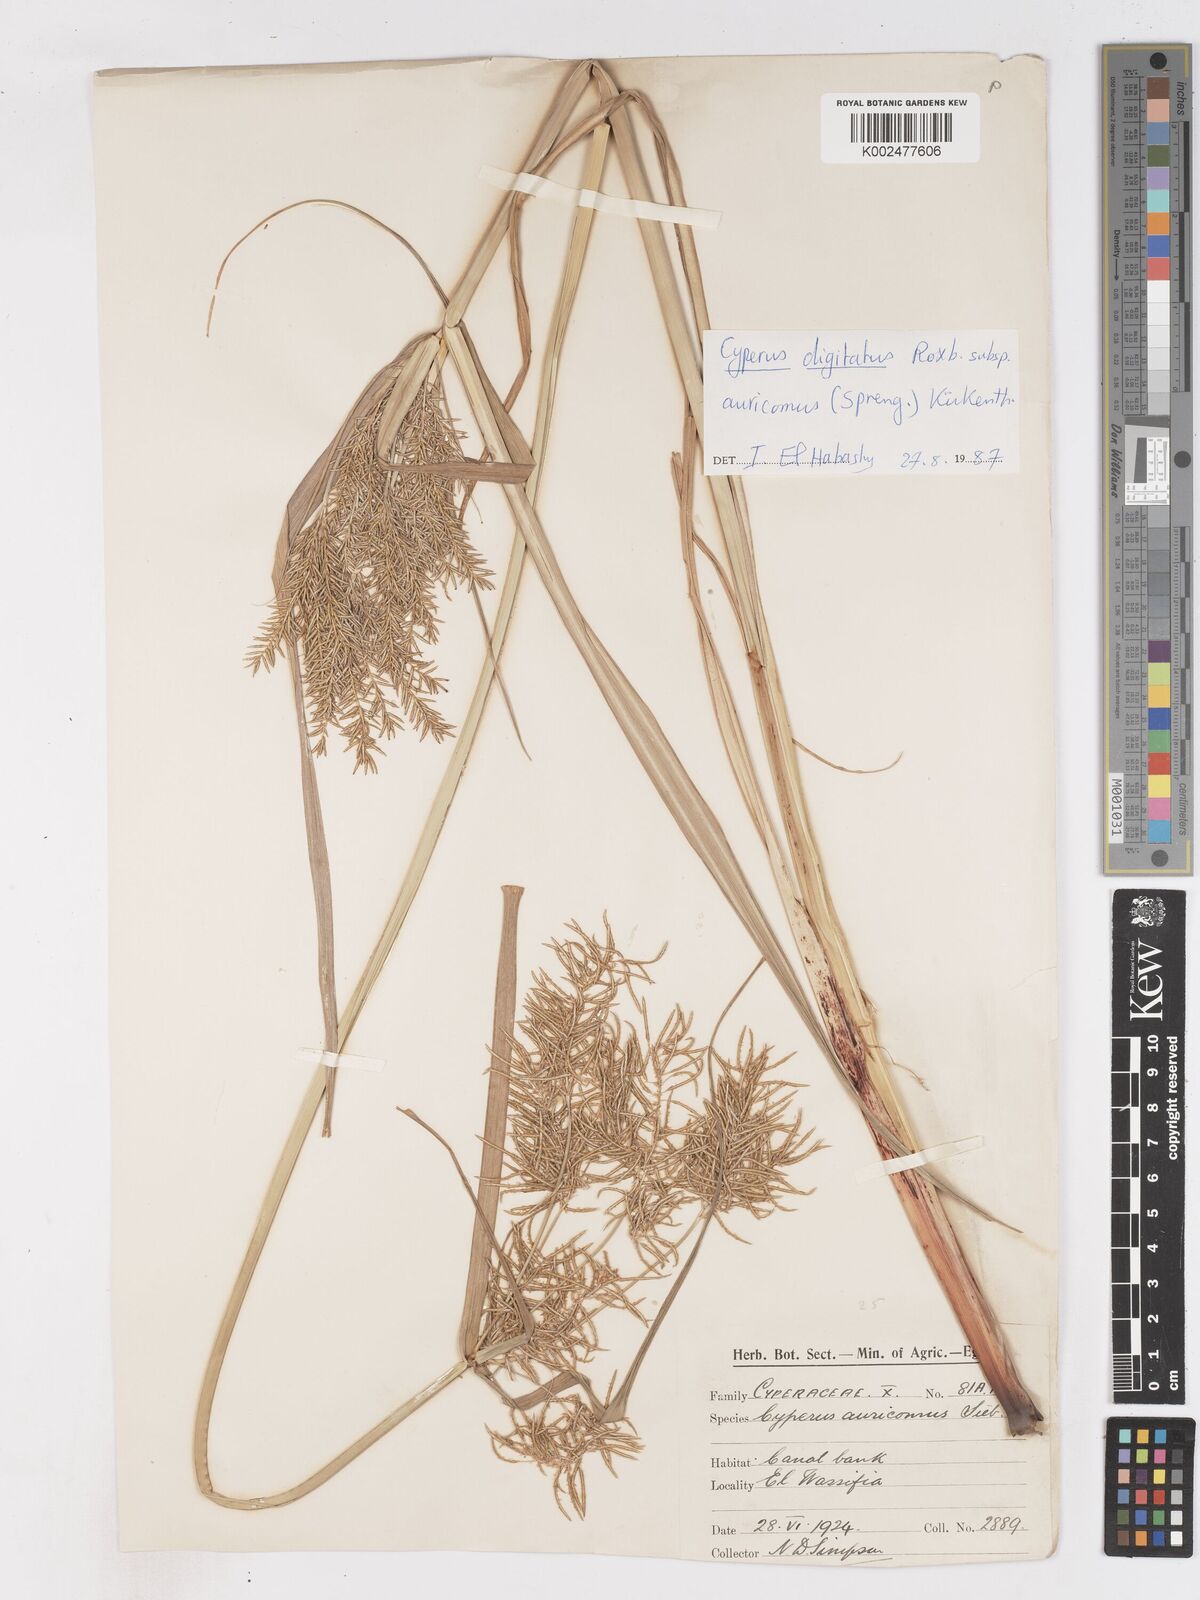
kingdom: Plantae
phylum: Tracheophyta
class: Liliopsida
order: Poales
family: Cyperaceae
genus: Cyperus
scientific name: Cyperus digitatus
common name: Finger flatsedge
